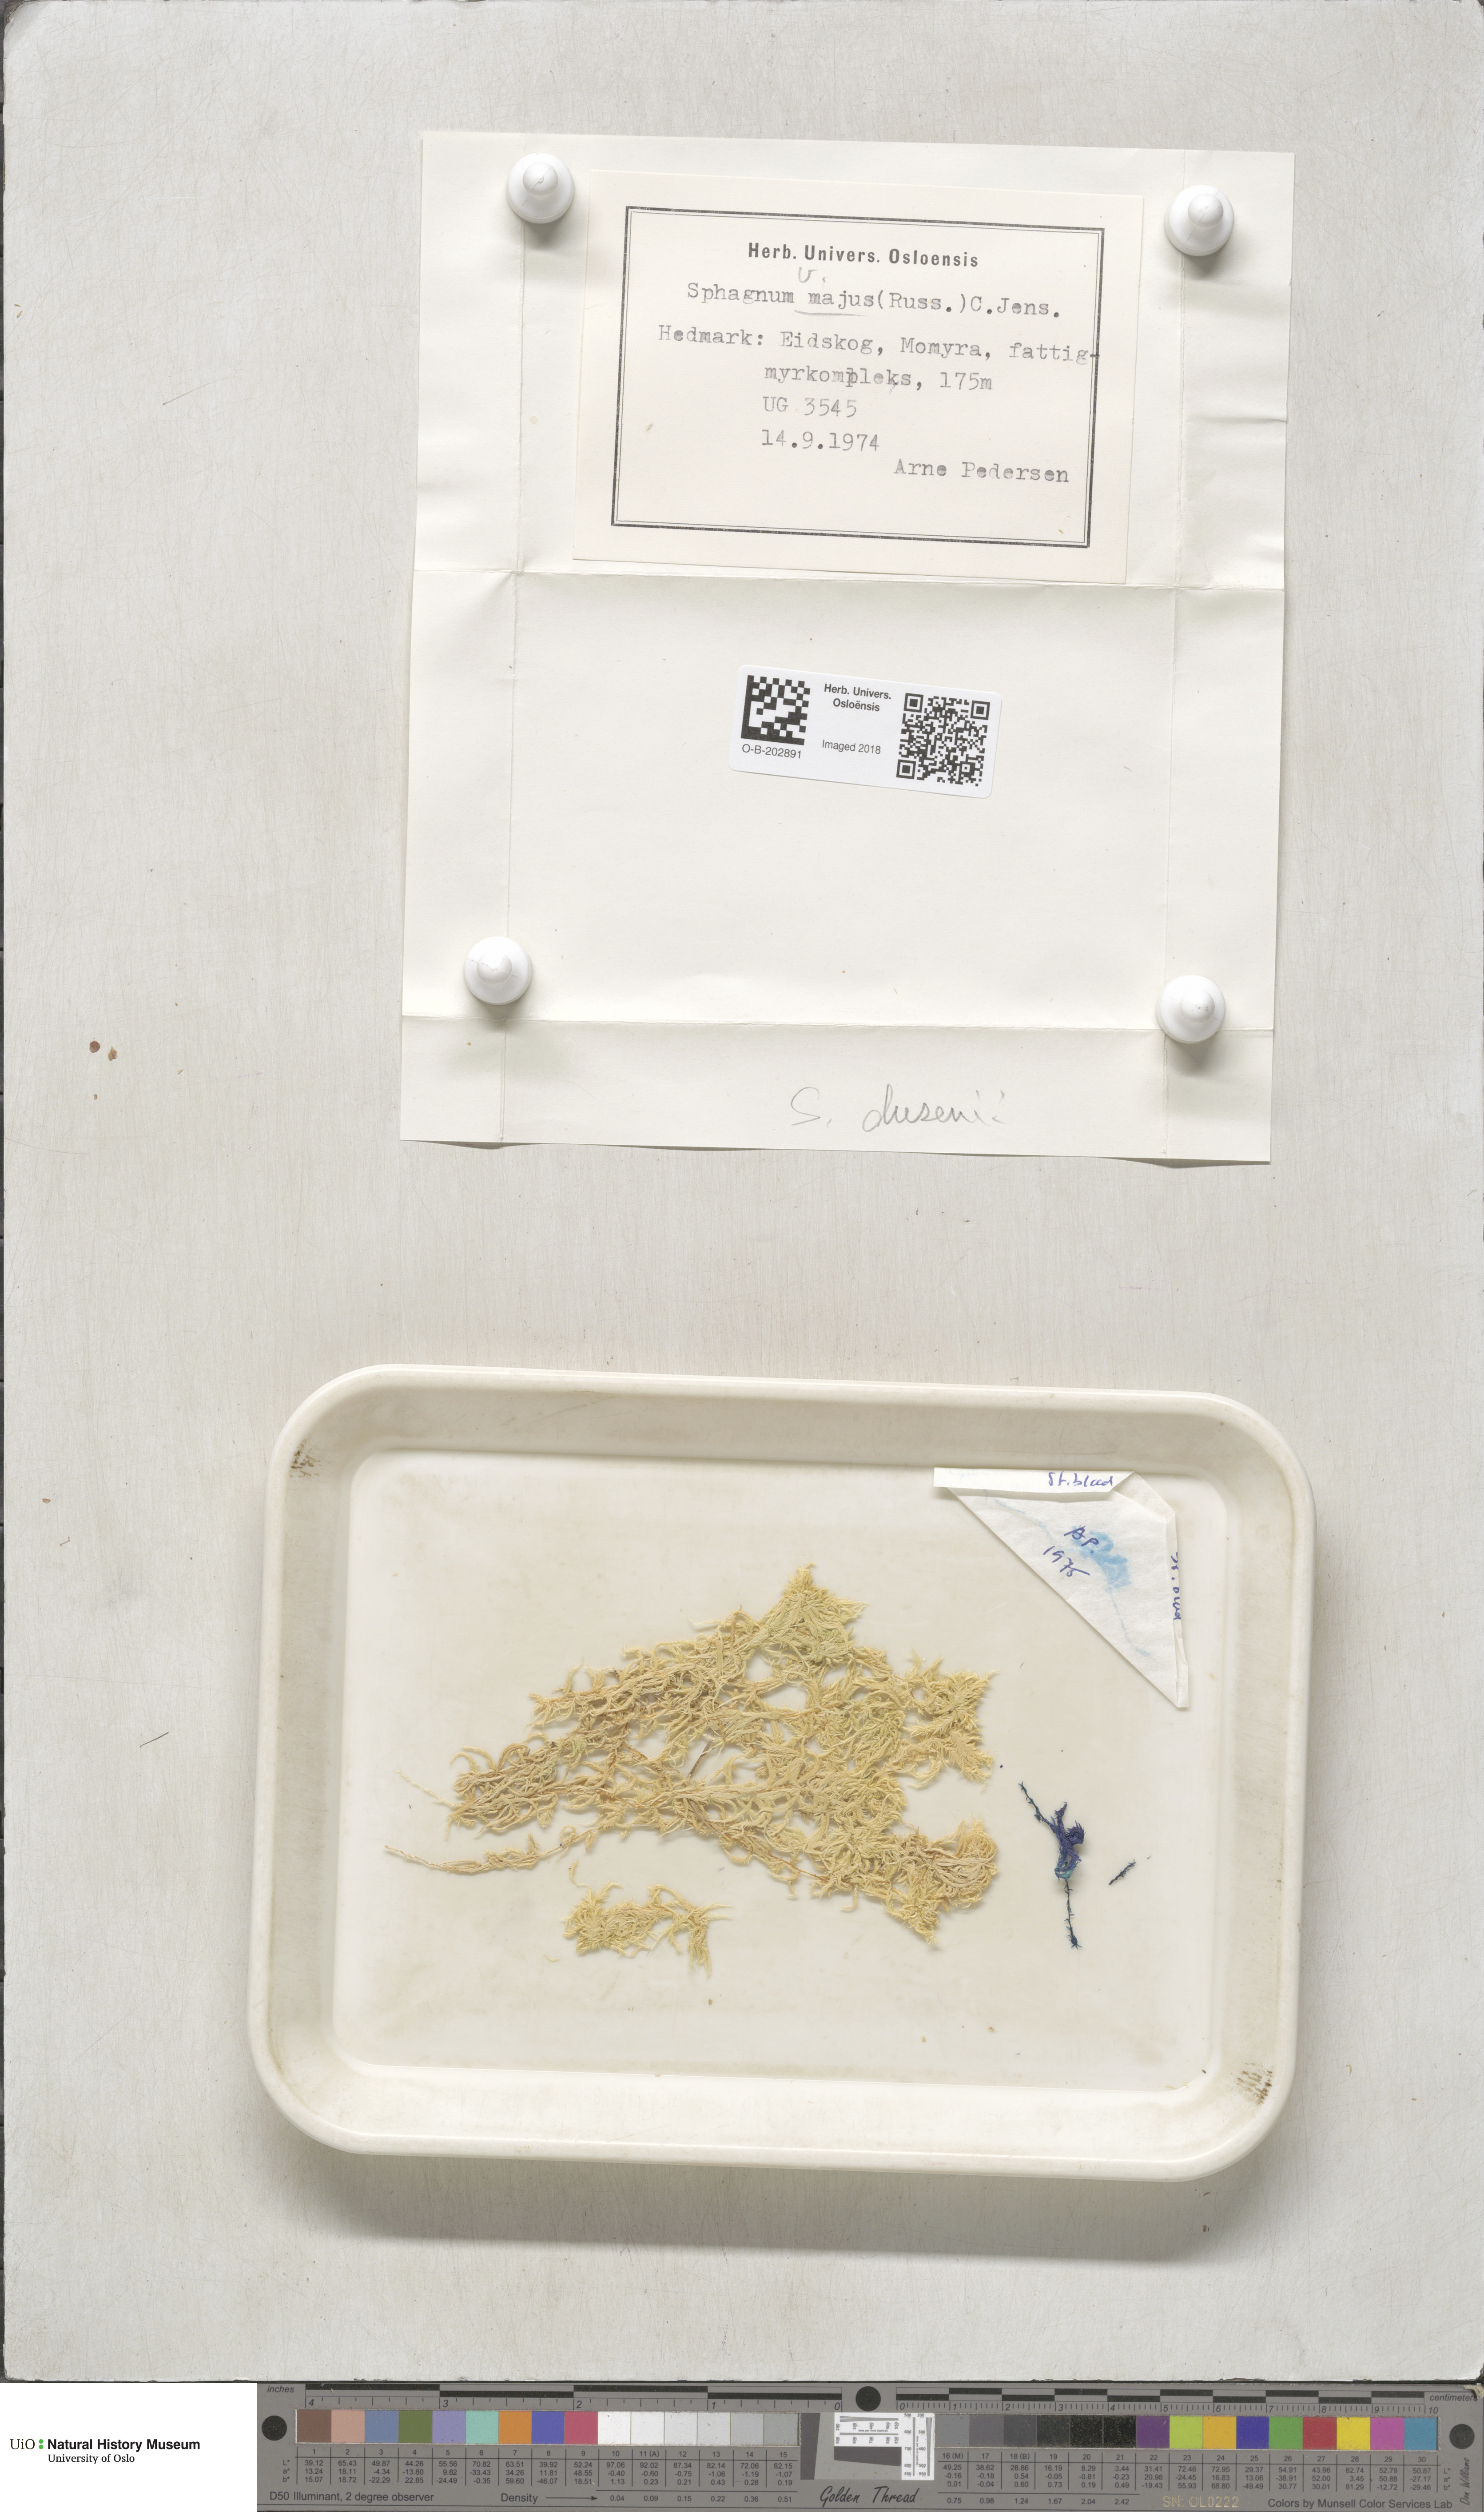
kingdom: Plantae
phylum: Bryophyta
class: Sphagnopsida
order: Sphagnales
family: Sphagnaceae
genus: Sphagnum
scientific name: Sphagnum majus
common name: Olive bog-moss
